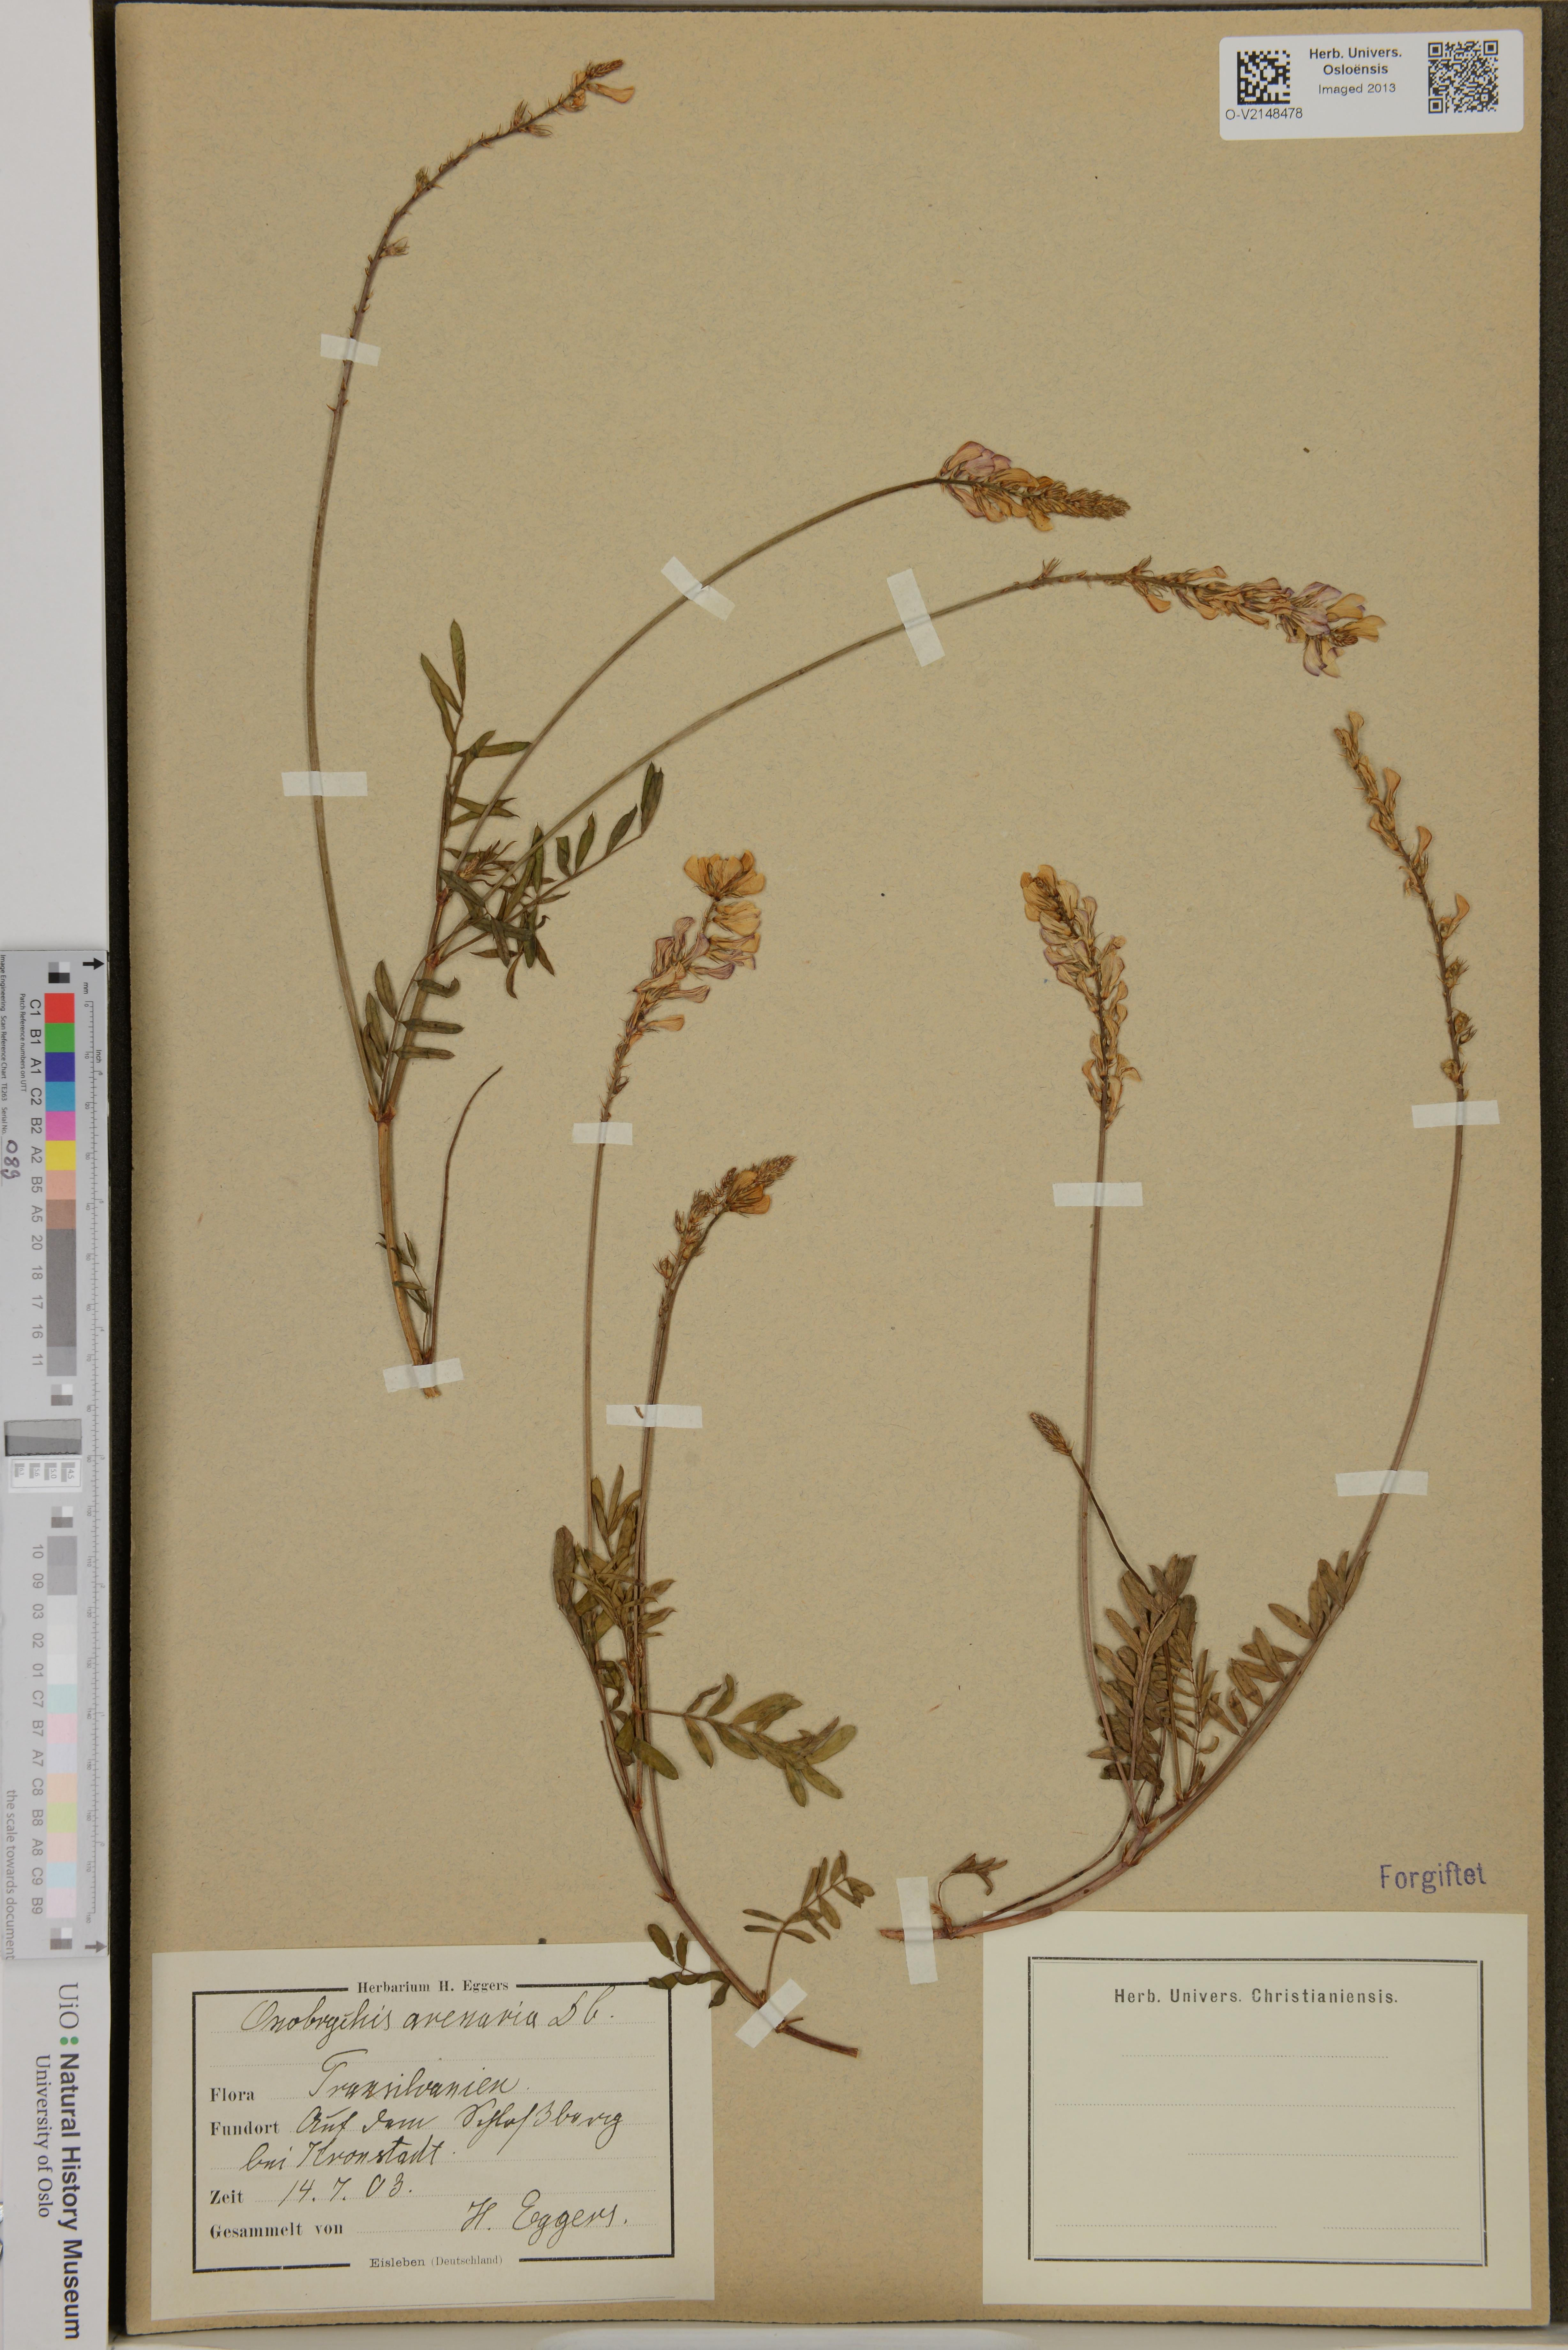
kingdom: Plantae
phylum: Tracheophyta
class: Magnoliopsida
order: Fabales
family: Fabaceae
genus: Onobrychis
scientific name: Onobrychis arenaria
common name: Sand esparcet
